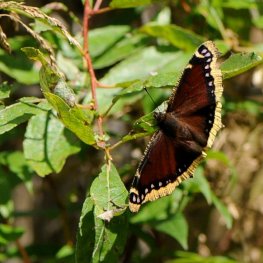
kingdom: Animalia
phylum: Arthropoda
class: Insecta
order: Lepidoptera
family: Nymphalidae
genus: Nymphalis
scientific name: Nymphalis antiopa
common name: Mourning Cloak
